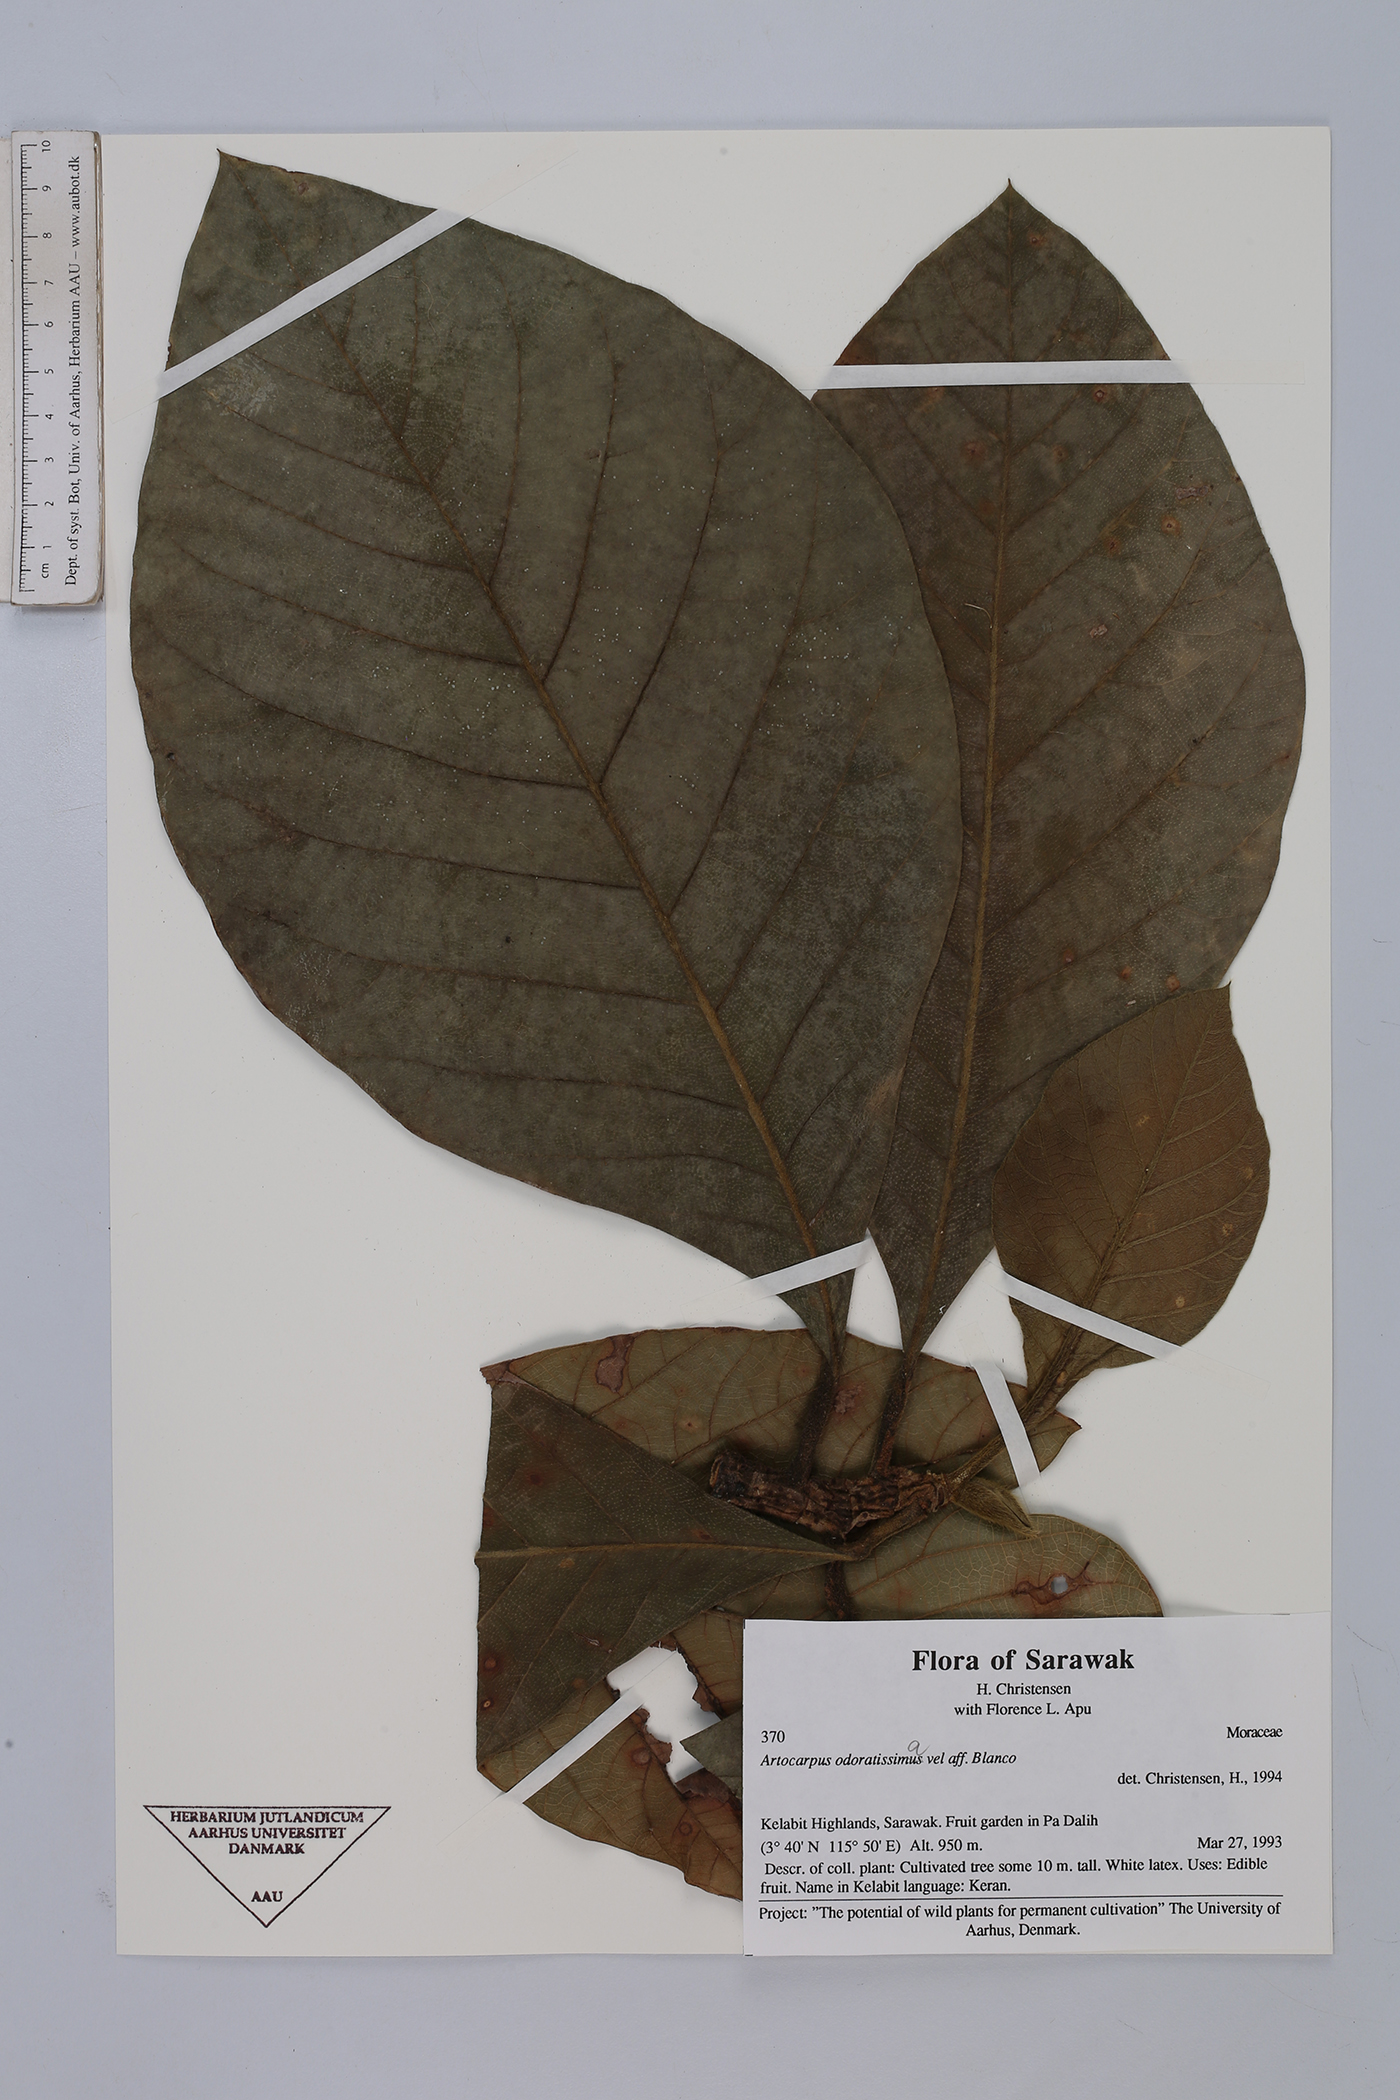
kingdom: Plantae
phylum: Tracheophyta
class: Magnoliopsida
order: Rosales
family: Moraceae
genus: Artocarpus
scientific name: Artocarpus odoratissimus
